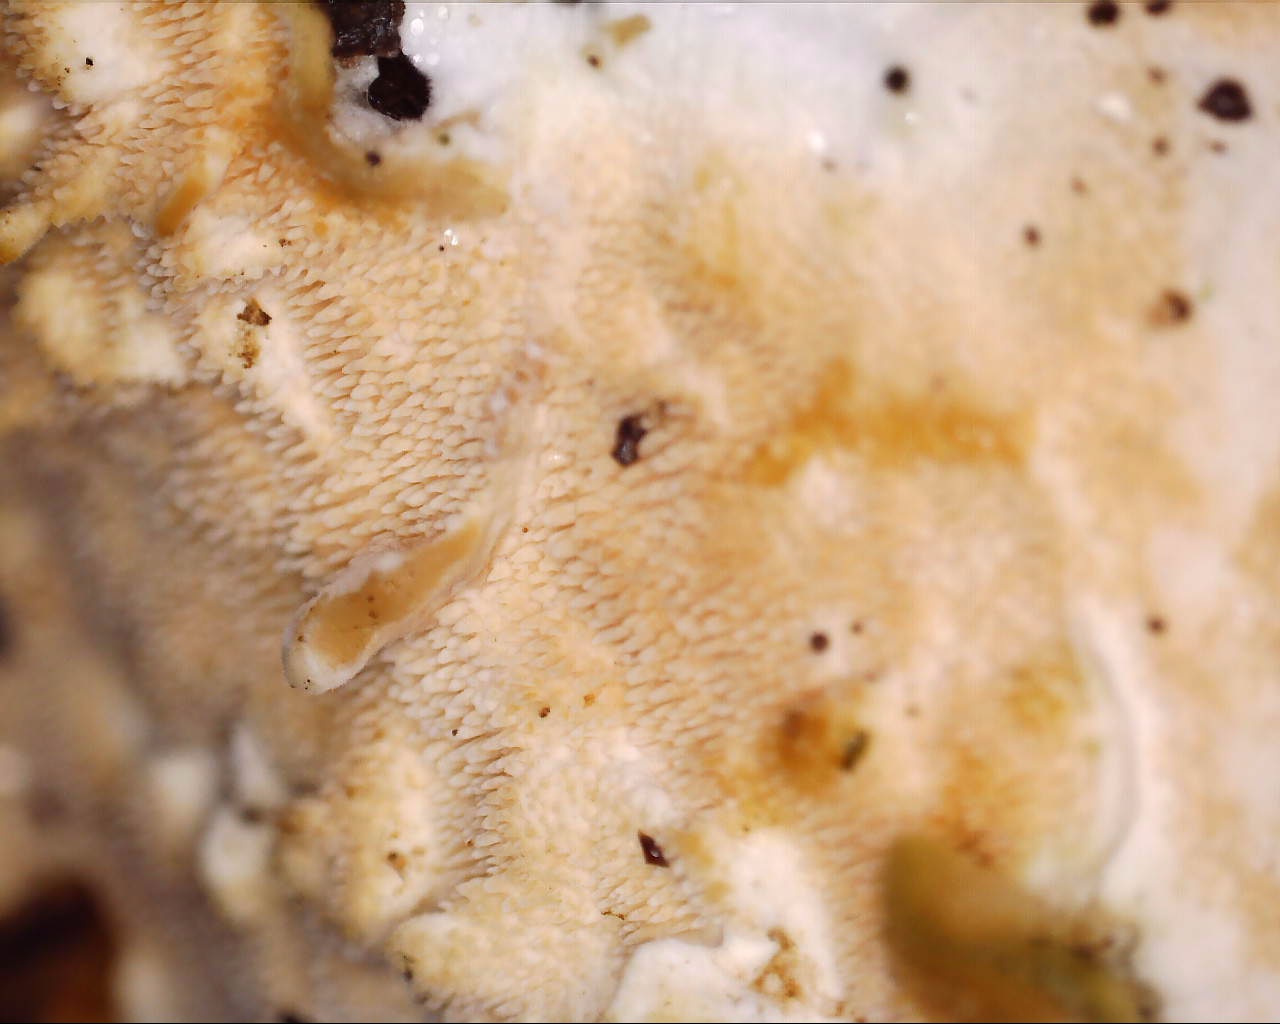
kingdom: Fungi
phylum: Basidiomycota
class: Agaricomycetes
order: Polyporales
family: Steccherinaceae
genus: Steccherinum
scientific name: Steccherinum ochraceum
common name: almindelig skønpig
